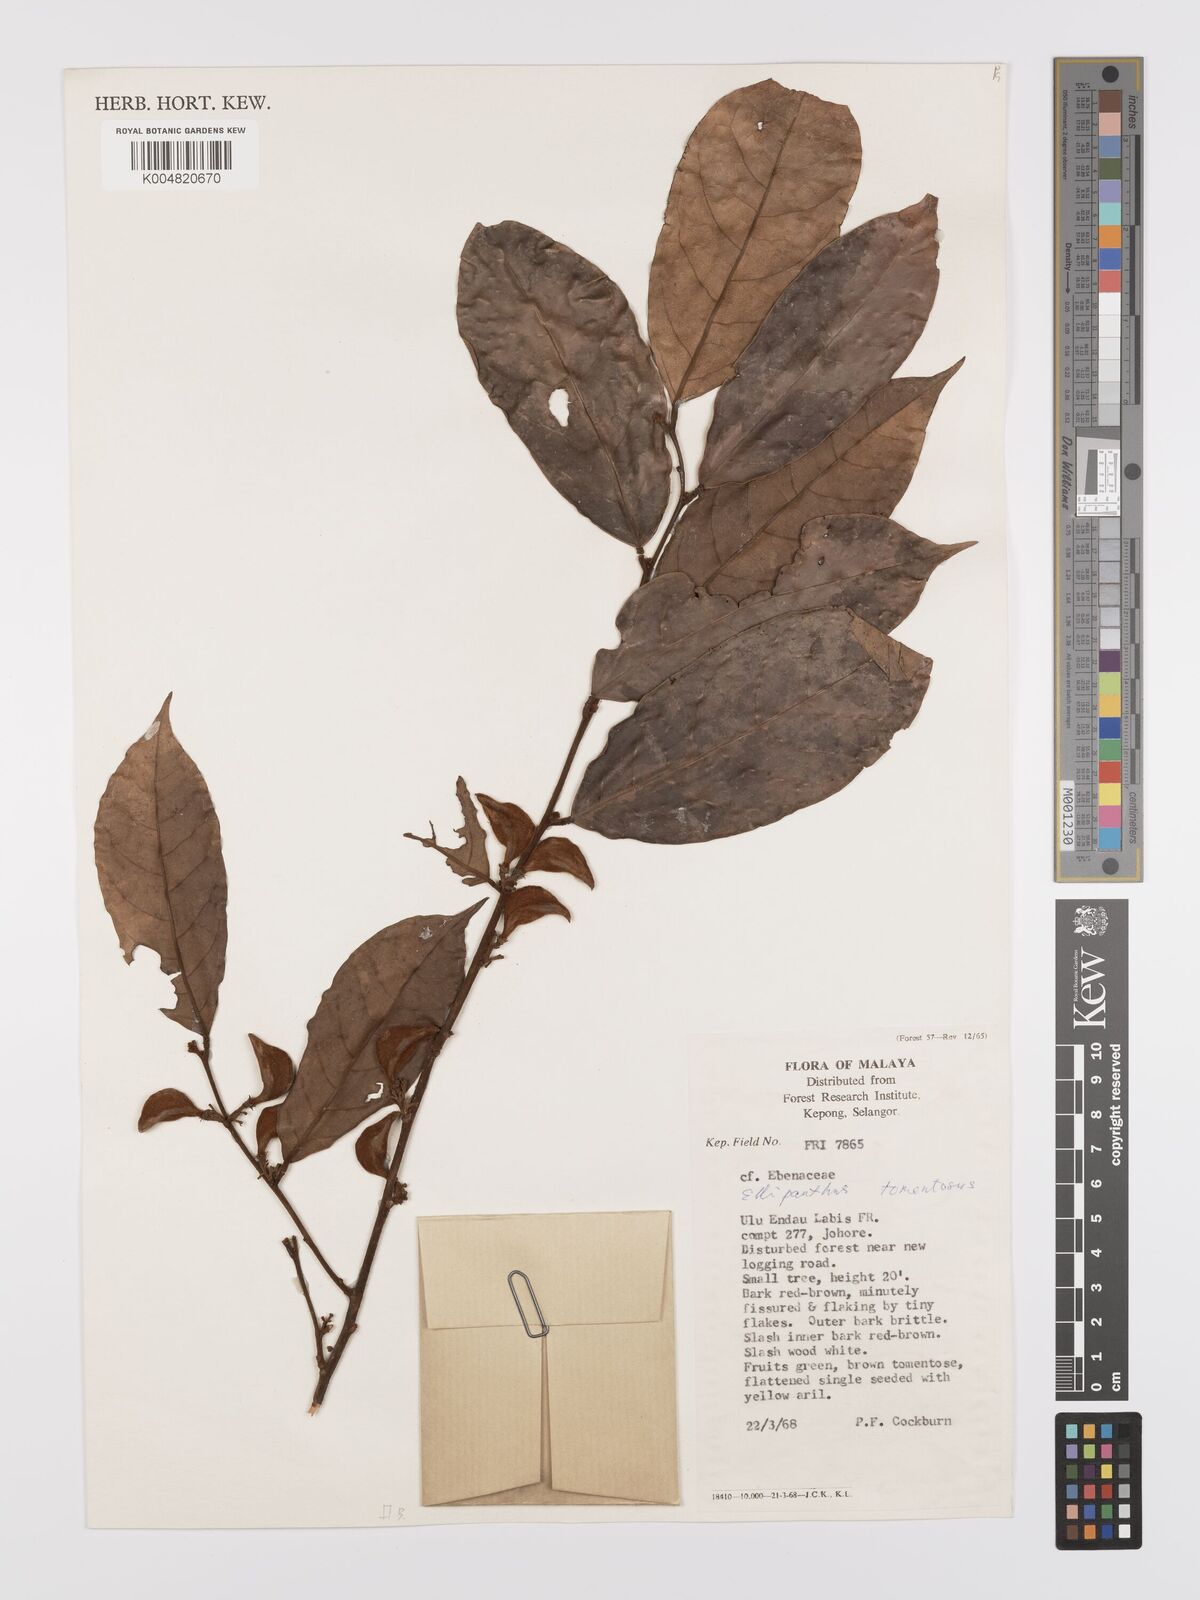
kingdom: Plantae
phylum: Tracheophyta
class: Magnoliopsida
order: Oxalidales
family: Connaraceae
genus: Ellipanthus
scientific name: Ellipanthus tomentosus
